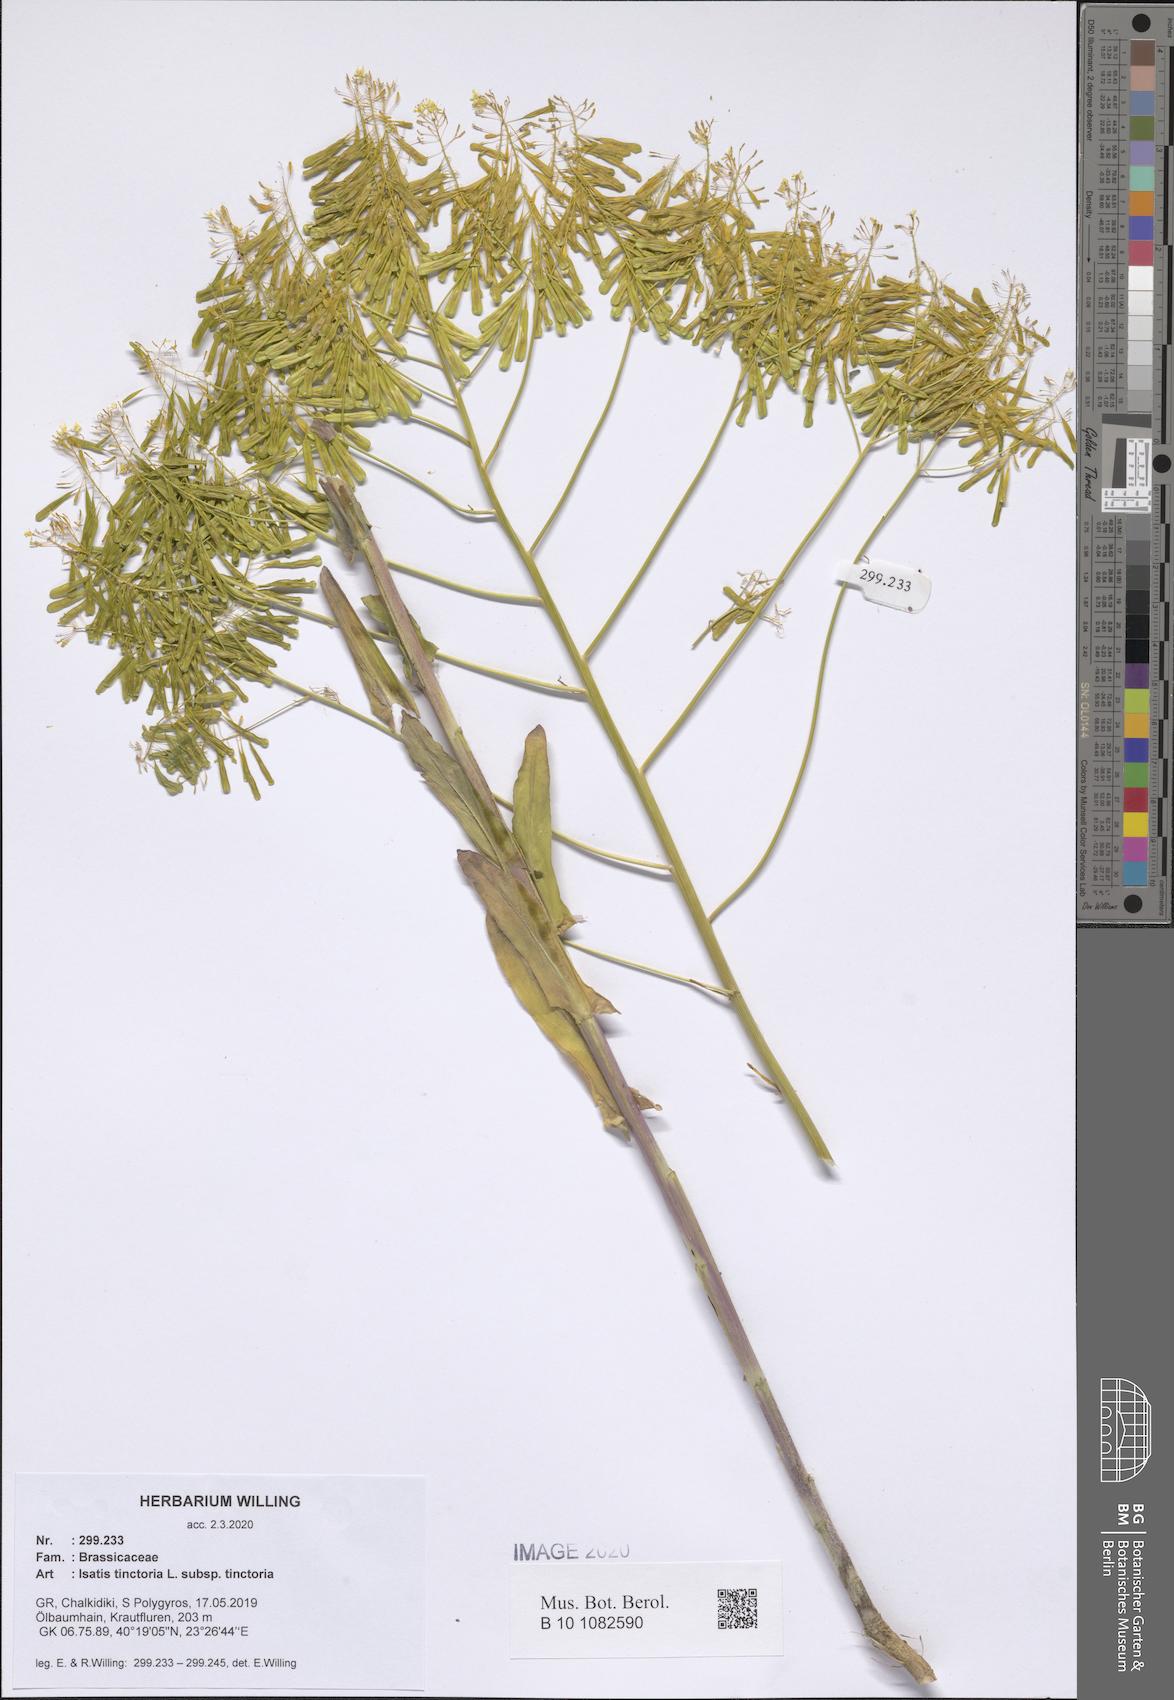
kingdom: Plantae
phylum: Tracheophyta
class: Magnoliopsida
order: Brassicales
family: Brassicaceae
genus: Isatis
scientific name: Isatis tinctoria
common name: Woad
